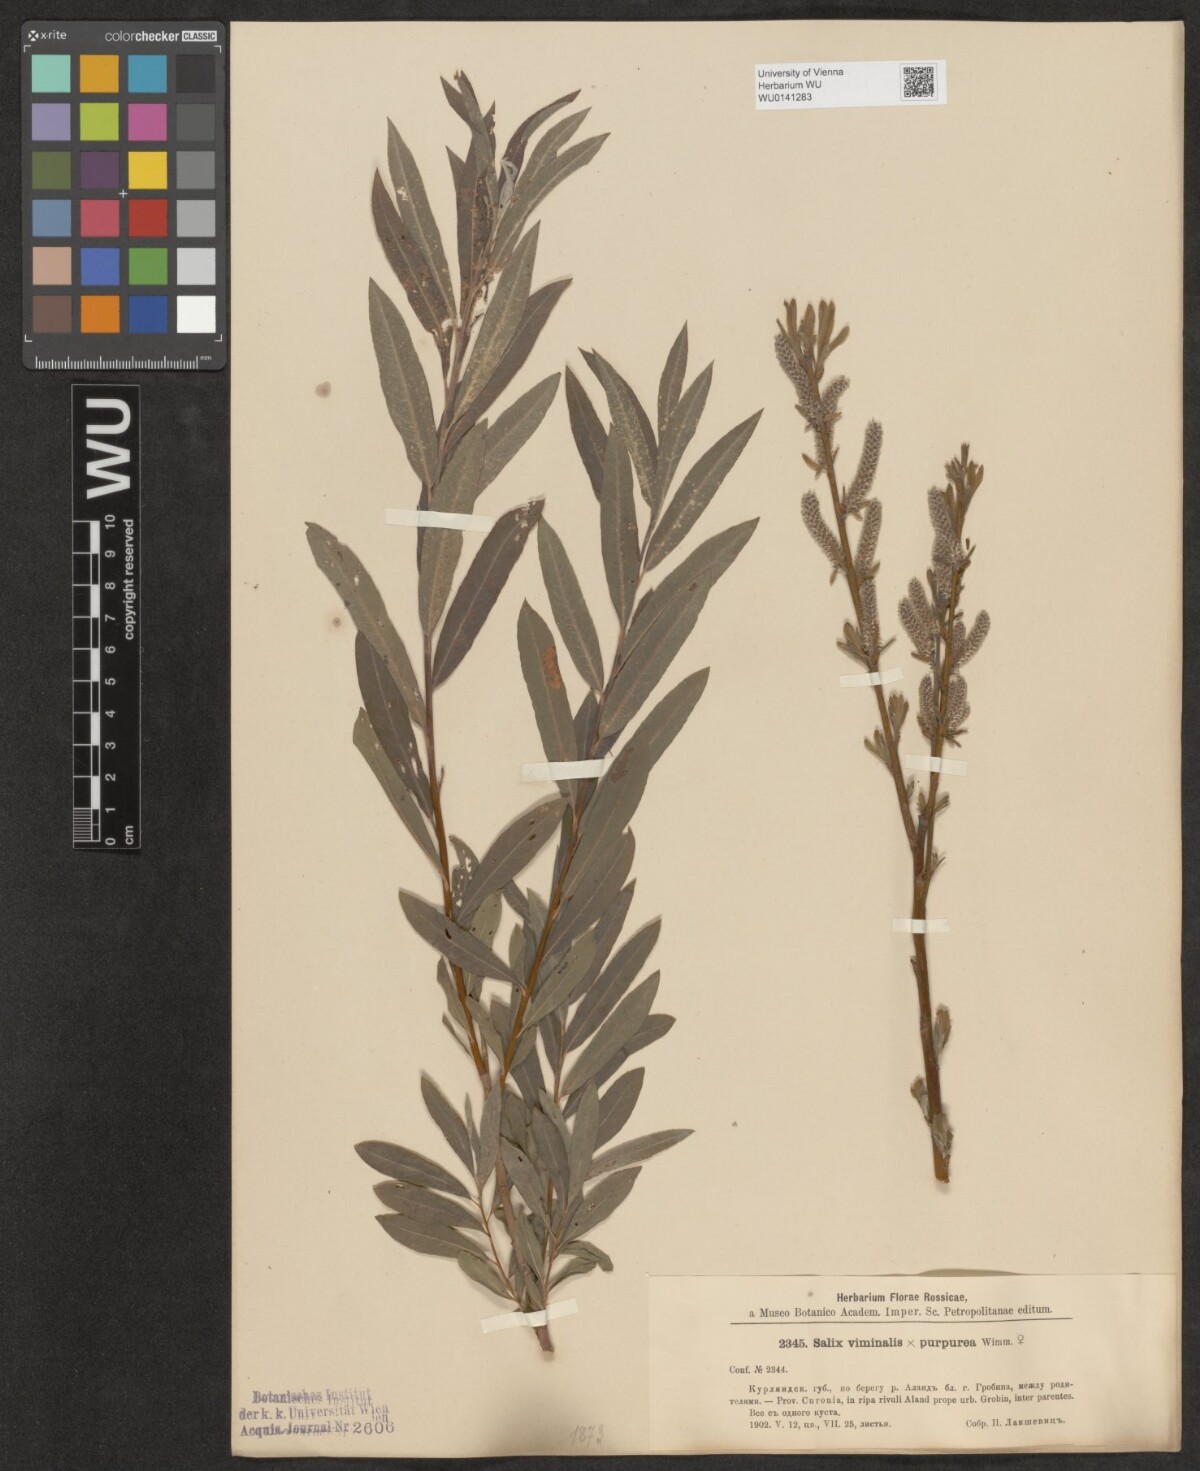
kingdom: Plantae
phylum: Tracheophyta
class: Magnoliopsida
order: Malpighiales
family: Salicaceae
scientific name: Salicaceae
